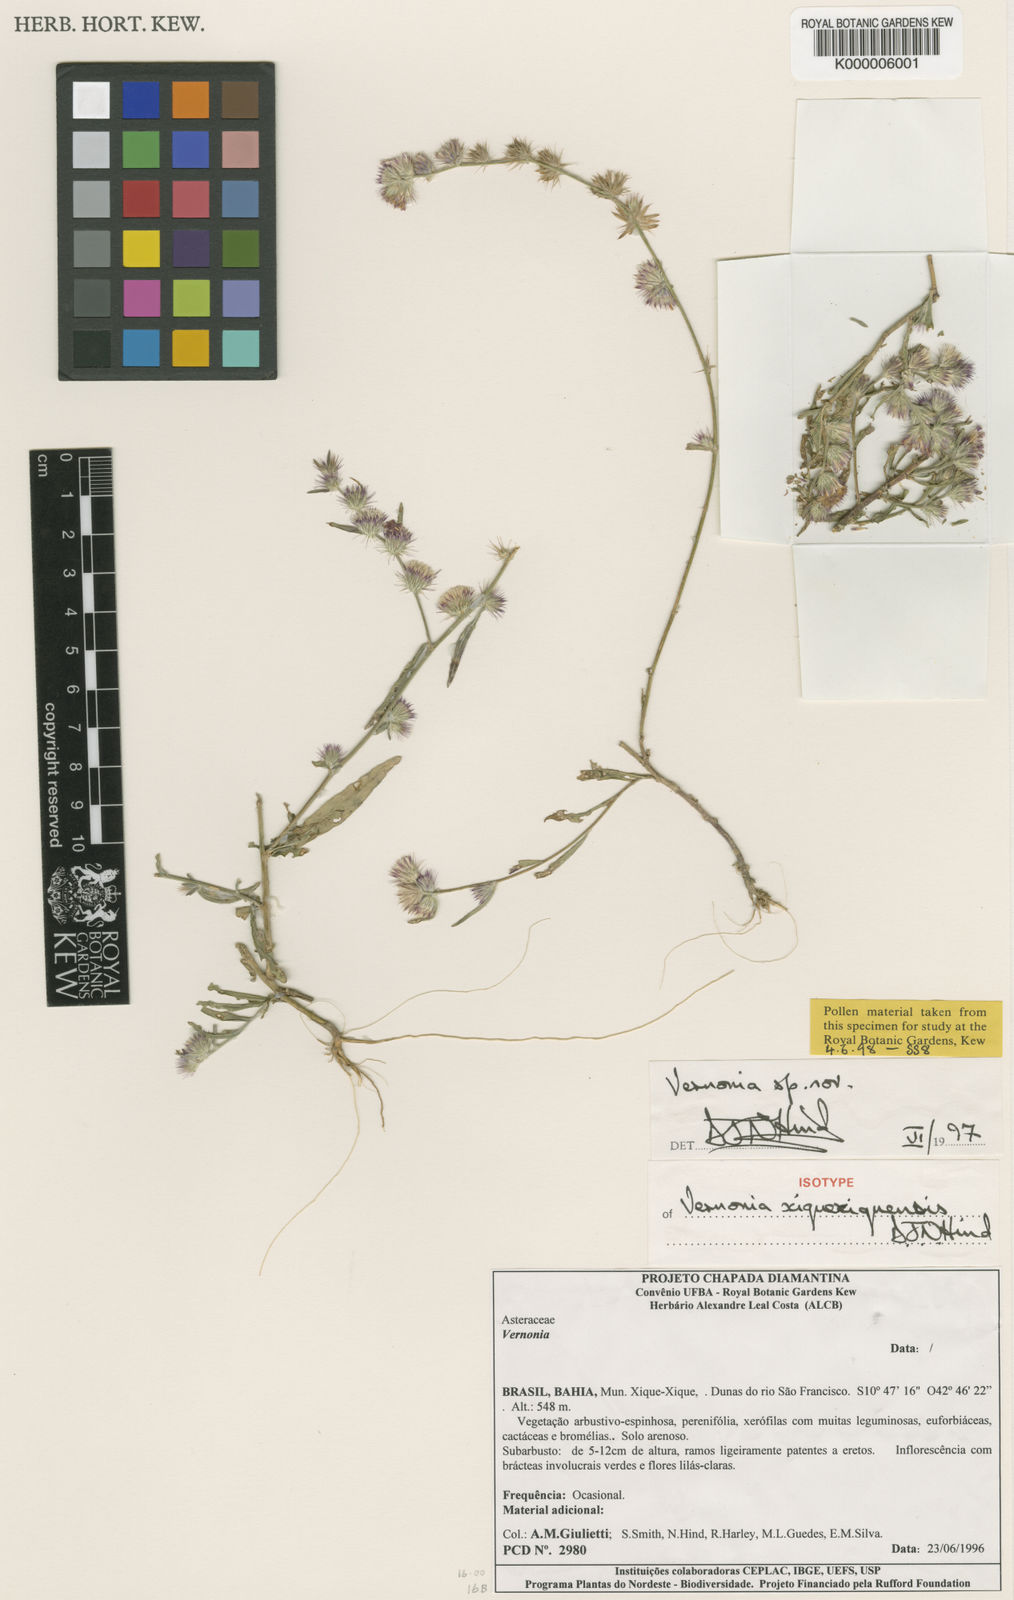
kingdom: Plantae
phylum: Tracheophyta
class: Magnoliopsida
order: Asterales
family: Asteraceae
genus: Lepidaploa
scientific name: Lepidaploa xiquexiquensis
